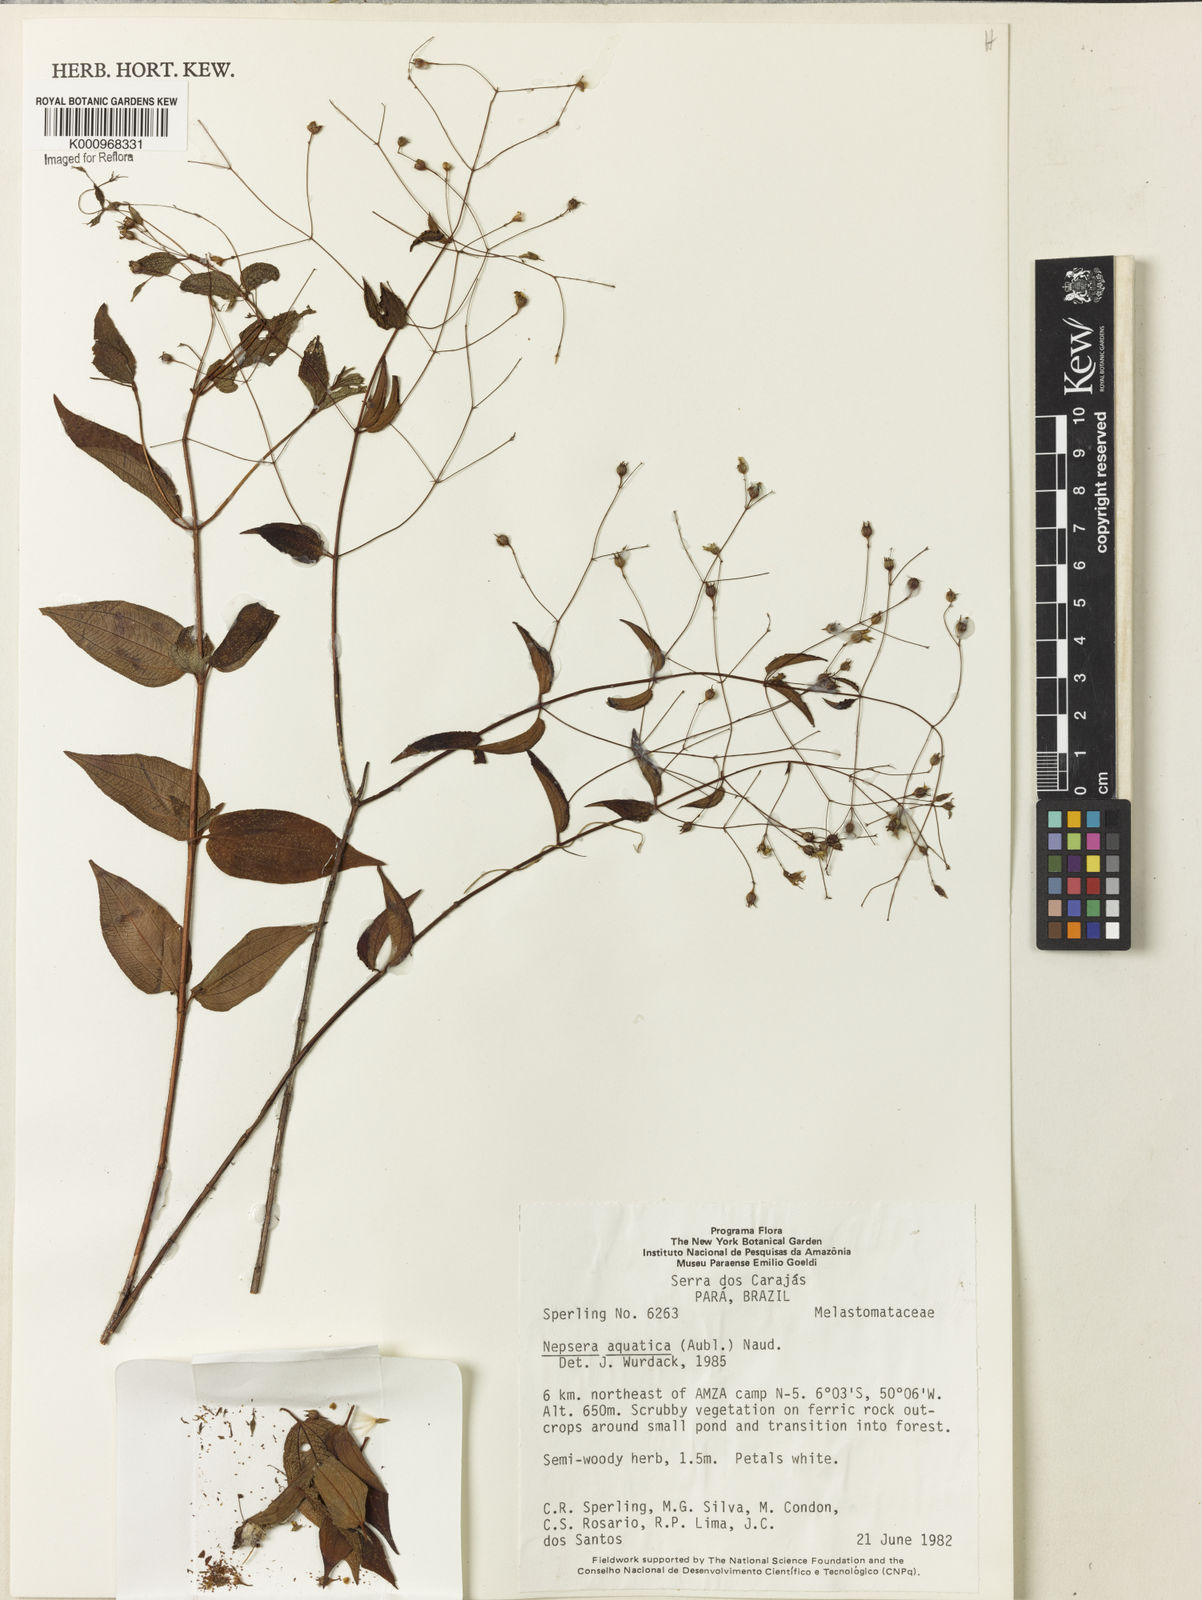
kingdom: Plantae
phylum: Tracheophyta
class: Magnoliopsida
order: Myrtales
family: Melastomataceae
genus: Nepsera
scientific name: Nepsera aquatica
